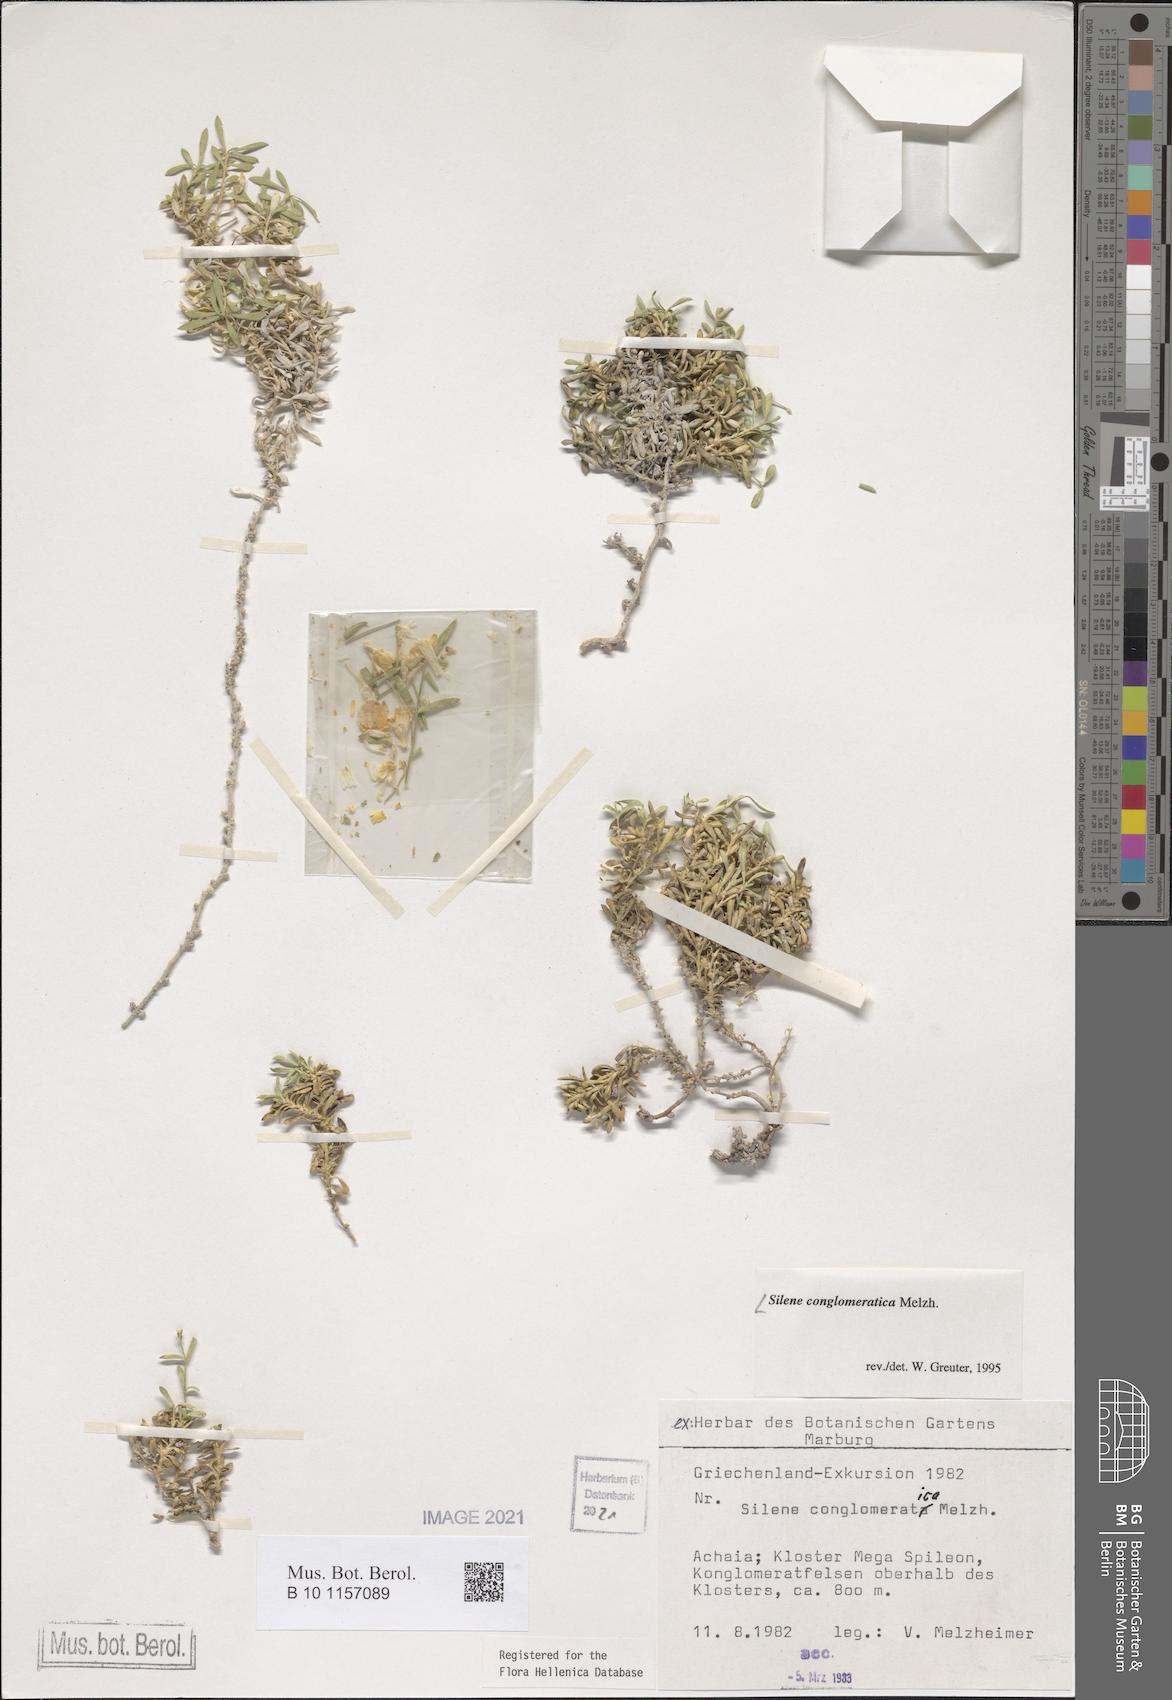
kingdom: Plantae
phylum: Tracheophyta
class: Magnoliopsida
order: Caryophyllales
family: Caryophyllaceae
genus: Silene
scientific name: Silene conglomeratica
